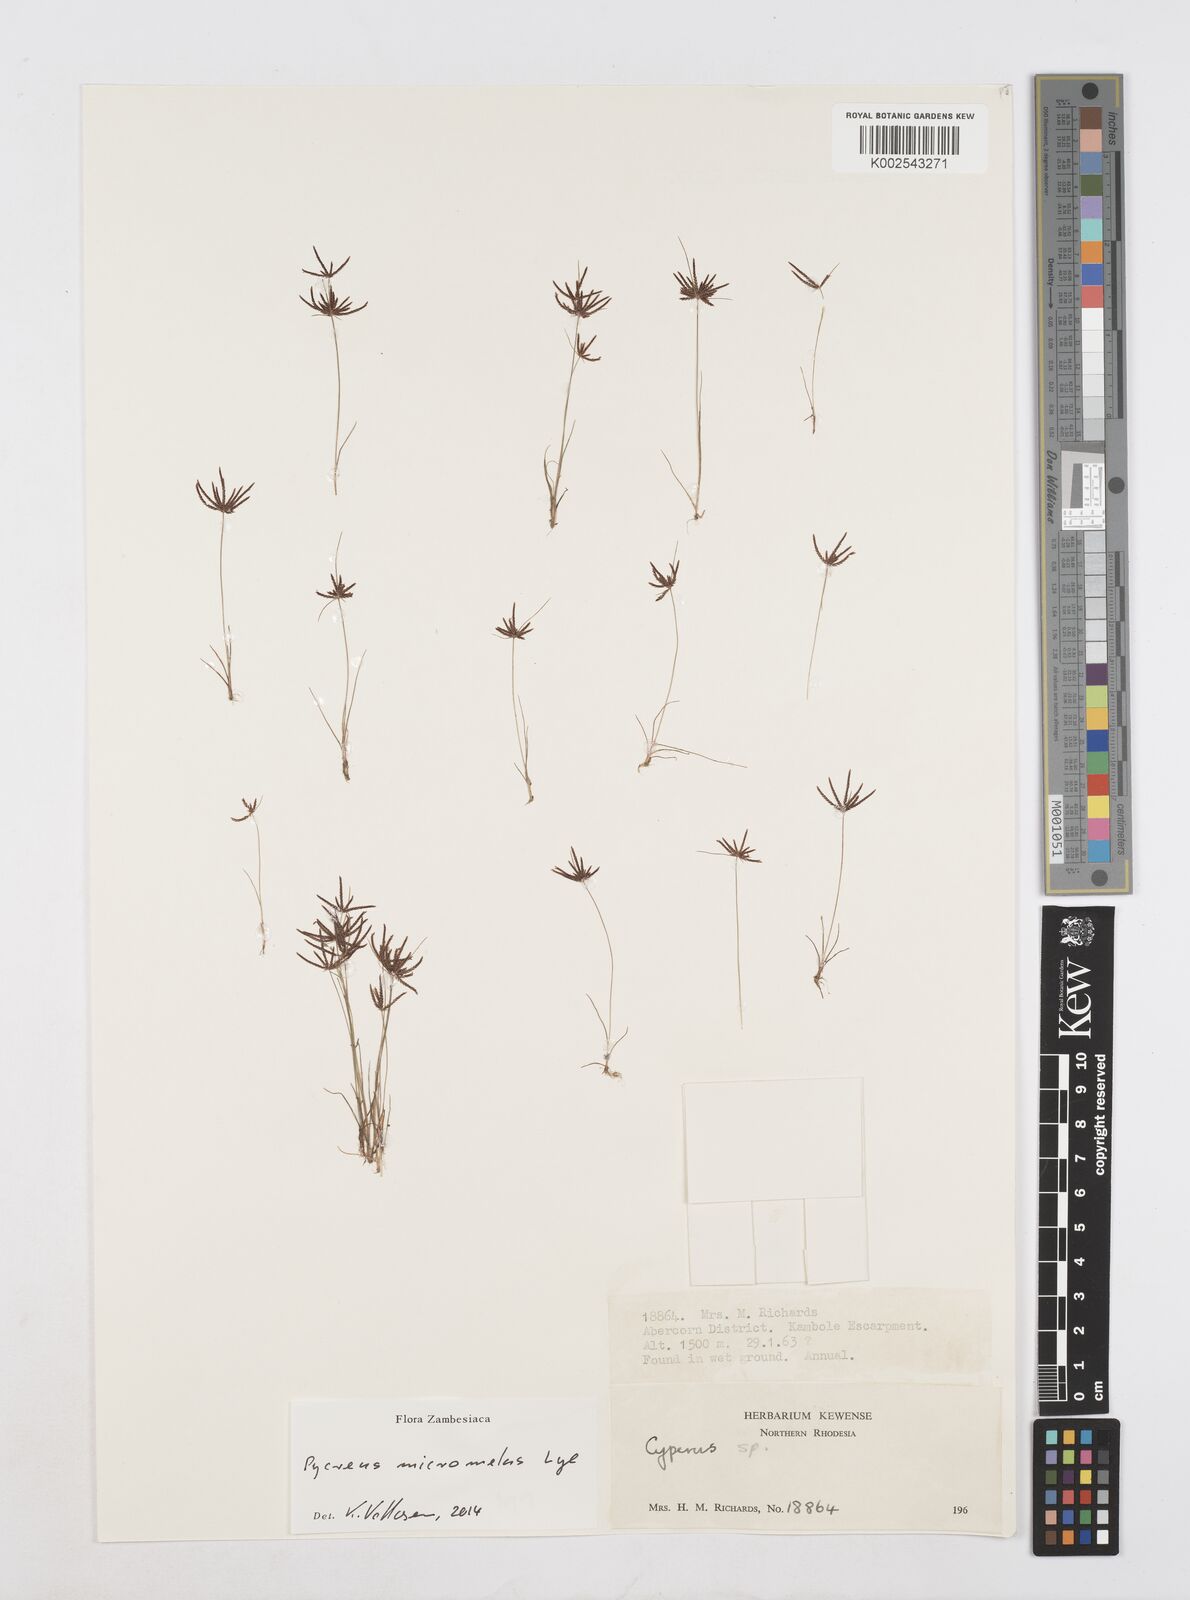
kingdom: Plantae
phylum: Tracheophyta
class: Liliopsida
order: Poales
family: Cyperaceae
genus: Cyperus
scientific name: Cyperus micromelas
